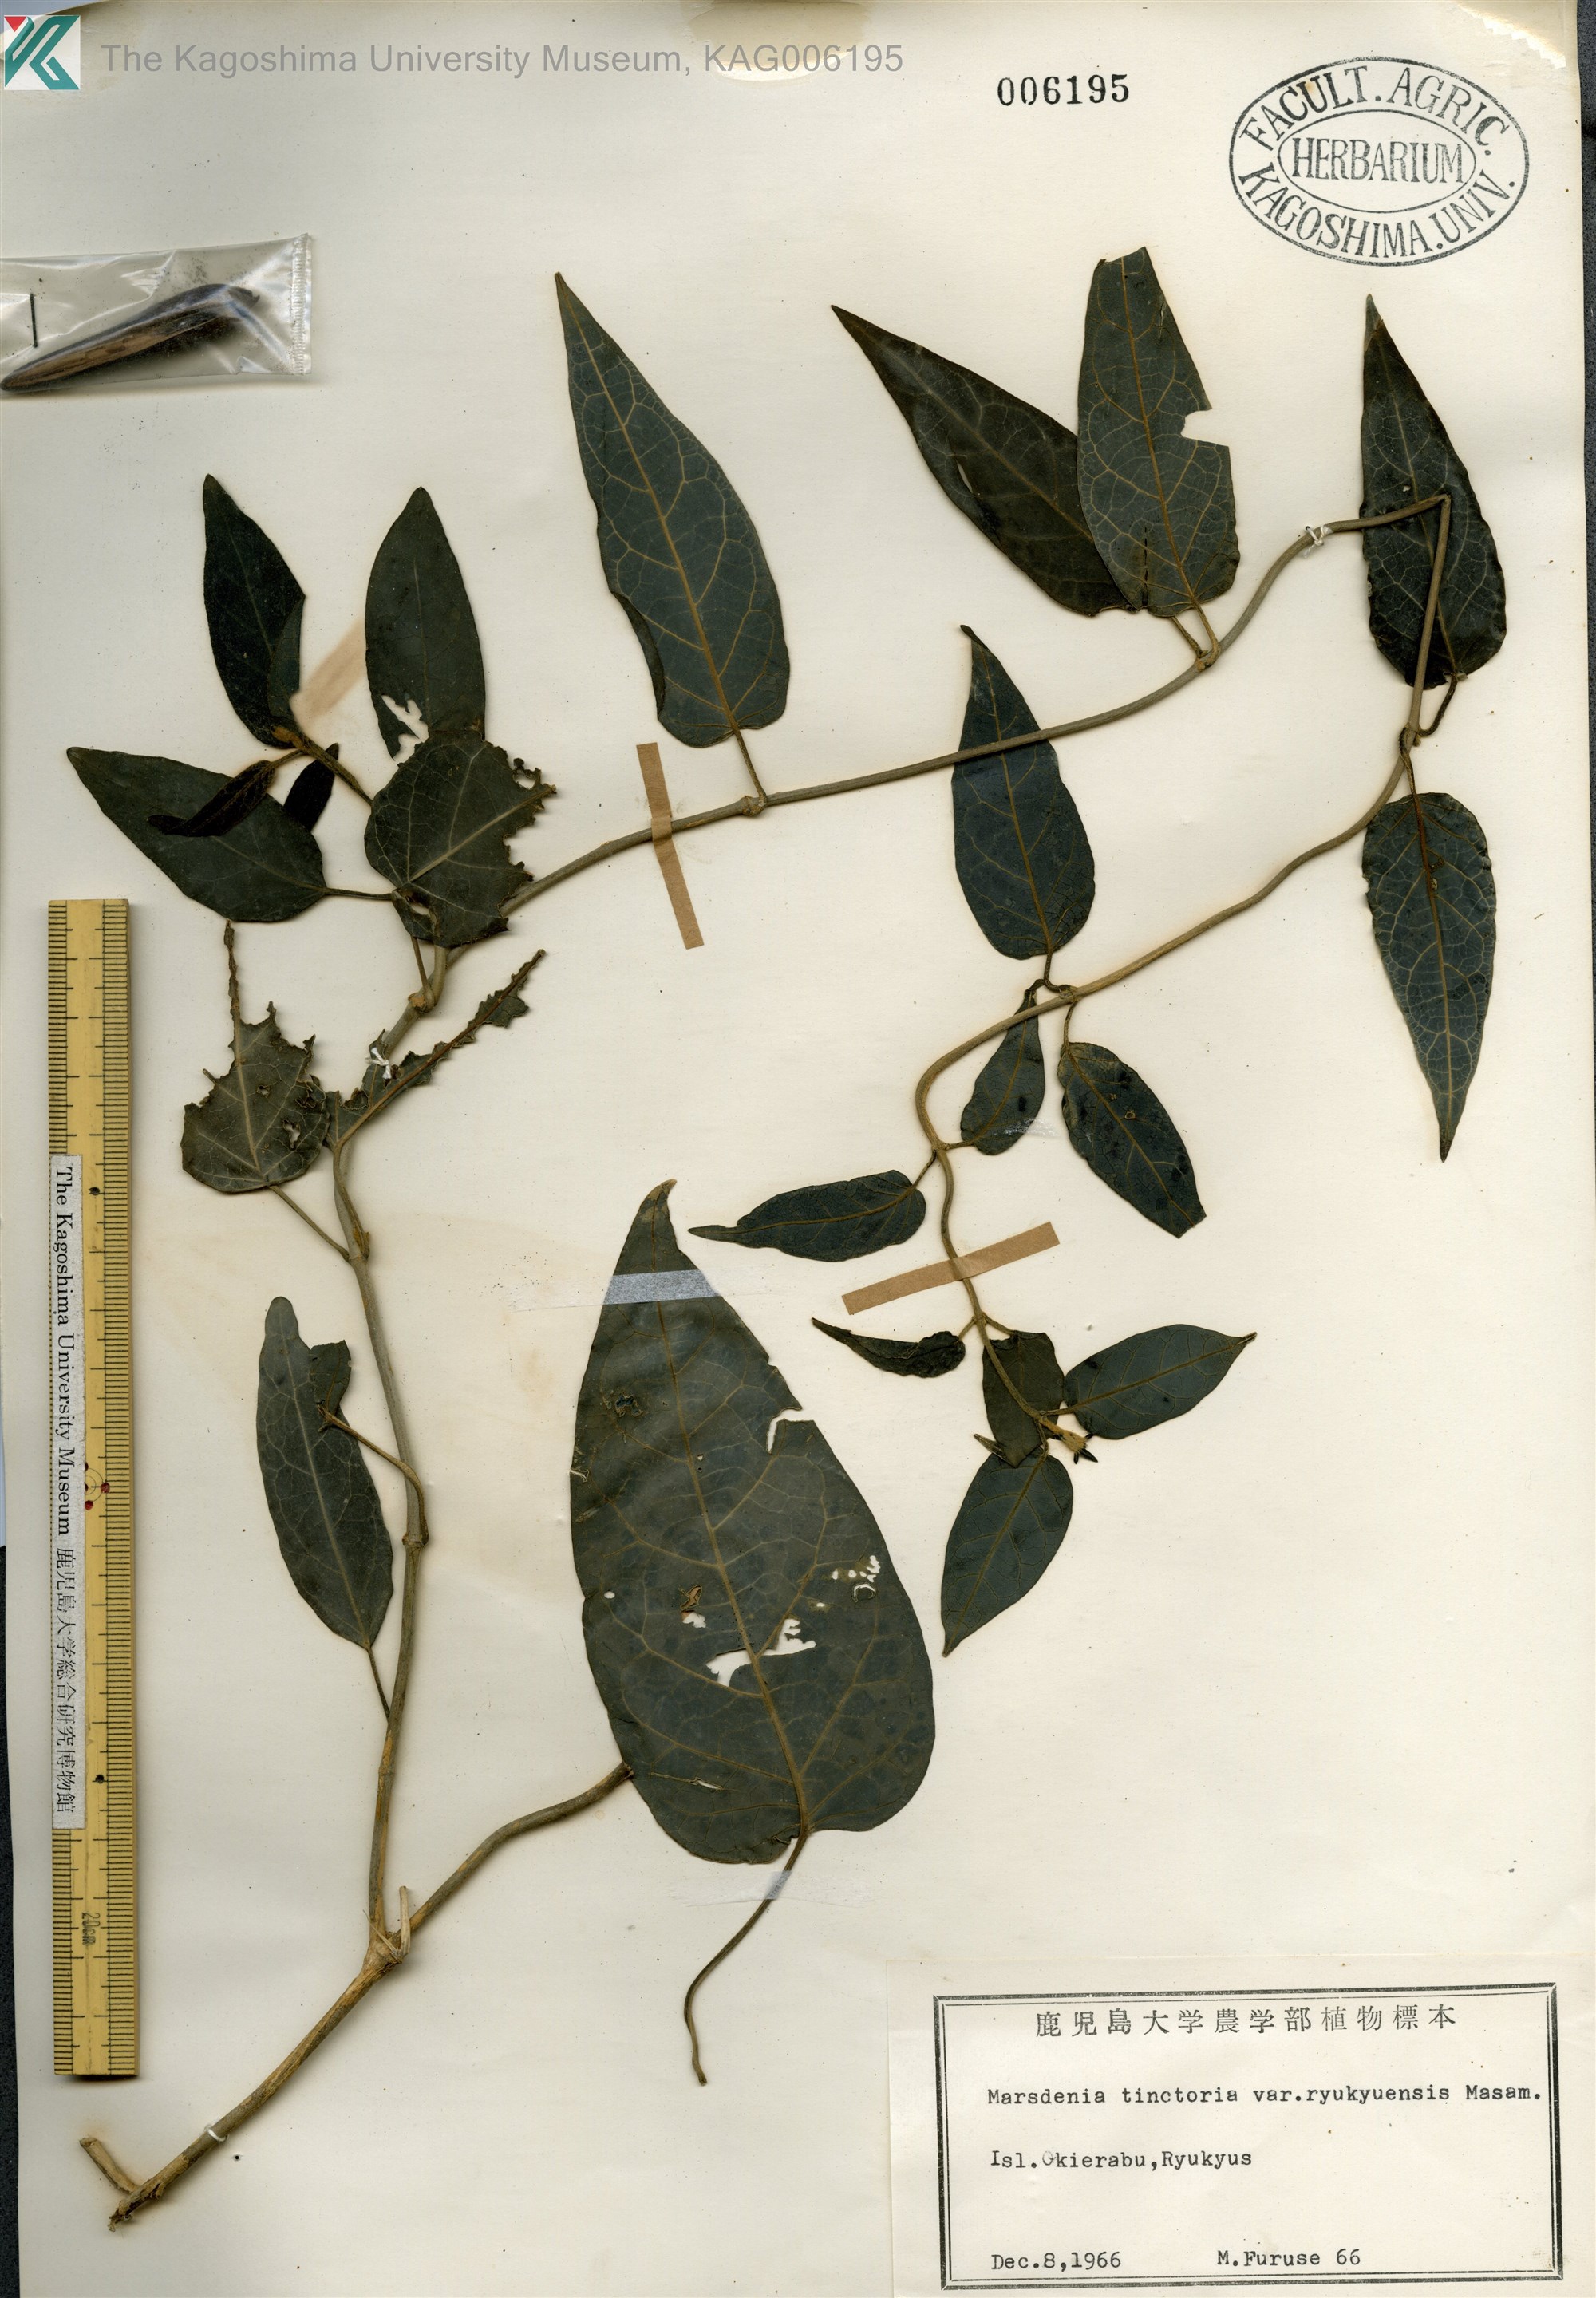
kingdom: Plantae
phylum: Tracheophyta
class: Magnoliopsida
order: Gentianales
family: Apocynaceae
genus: Marsdenia
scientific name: Marsdenia tinctoria
